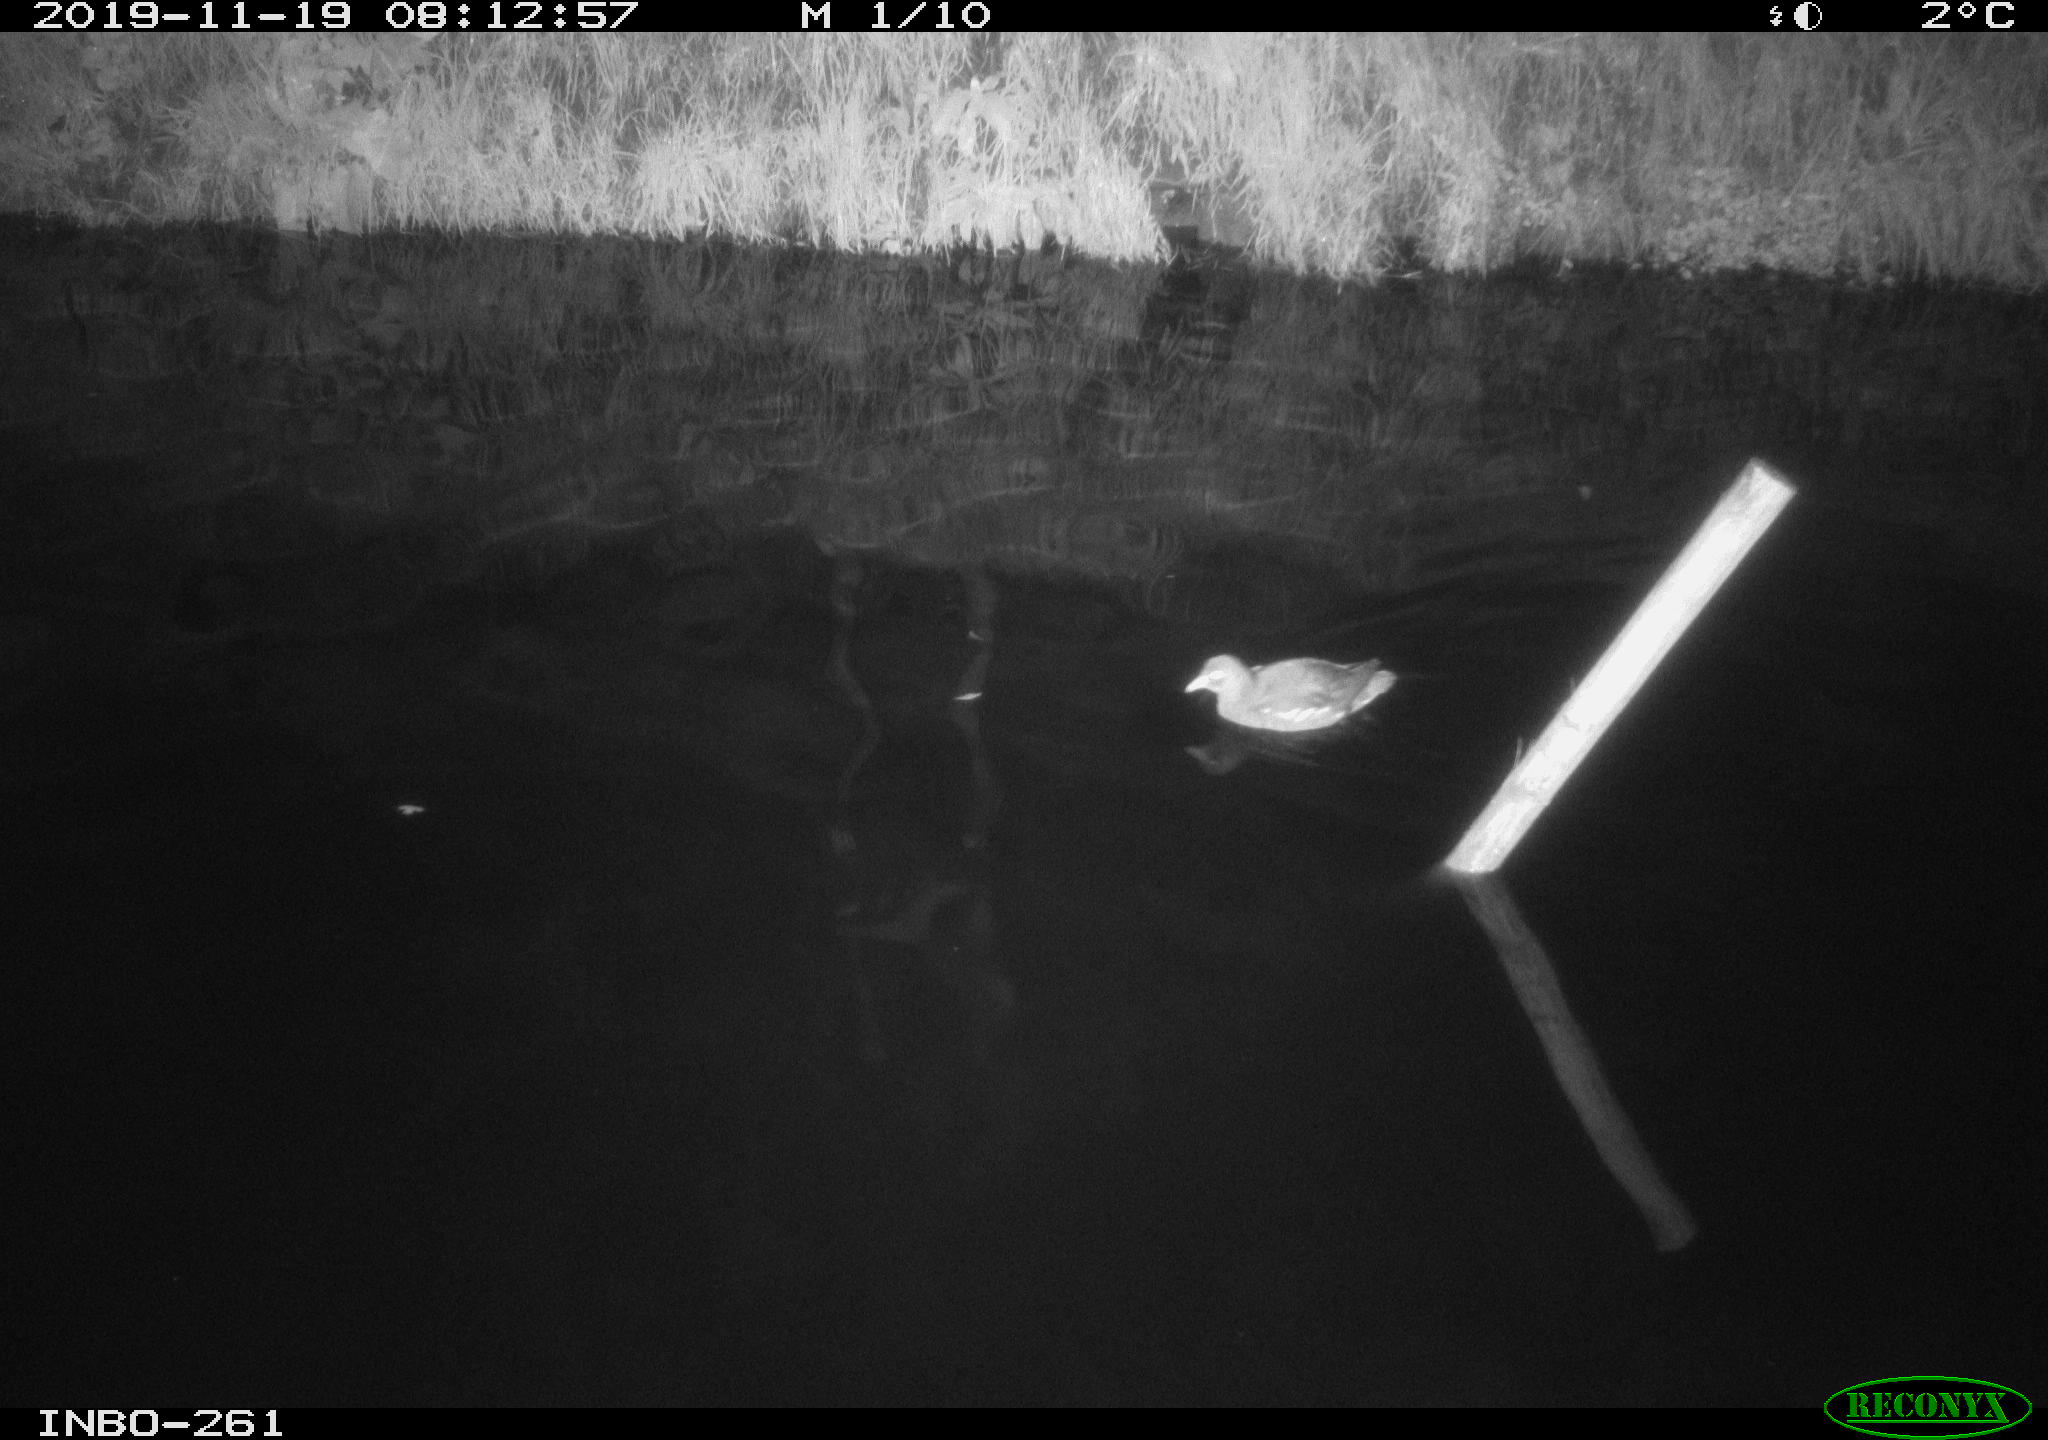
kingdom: Animalia
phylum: Chordata
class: Aves
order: Gruiformes
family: Rallidae
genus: Gallinula
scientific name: Gallinula chloropus
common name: Common moorhen
